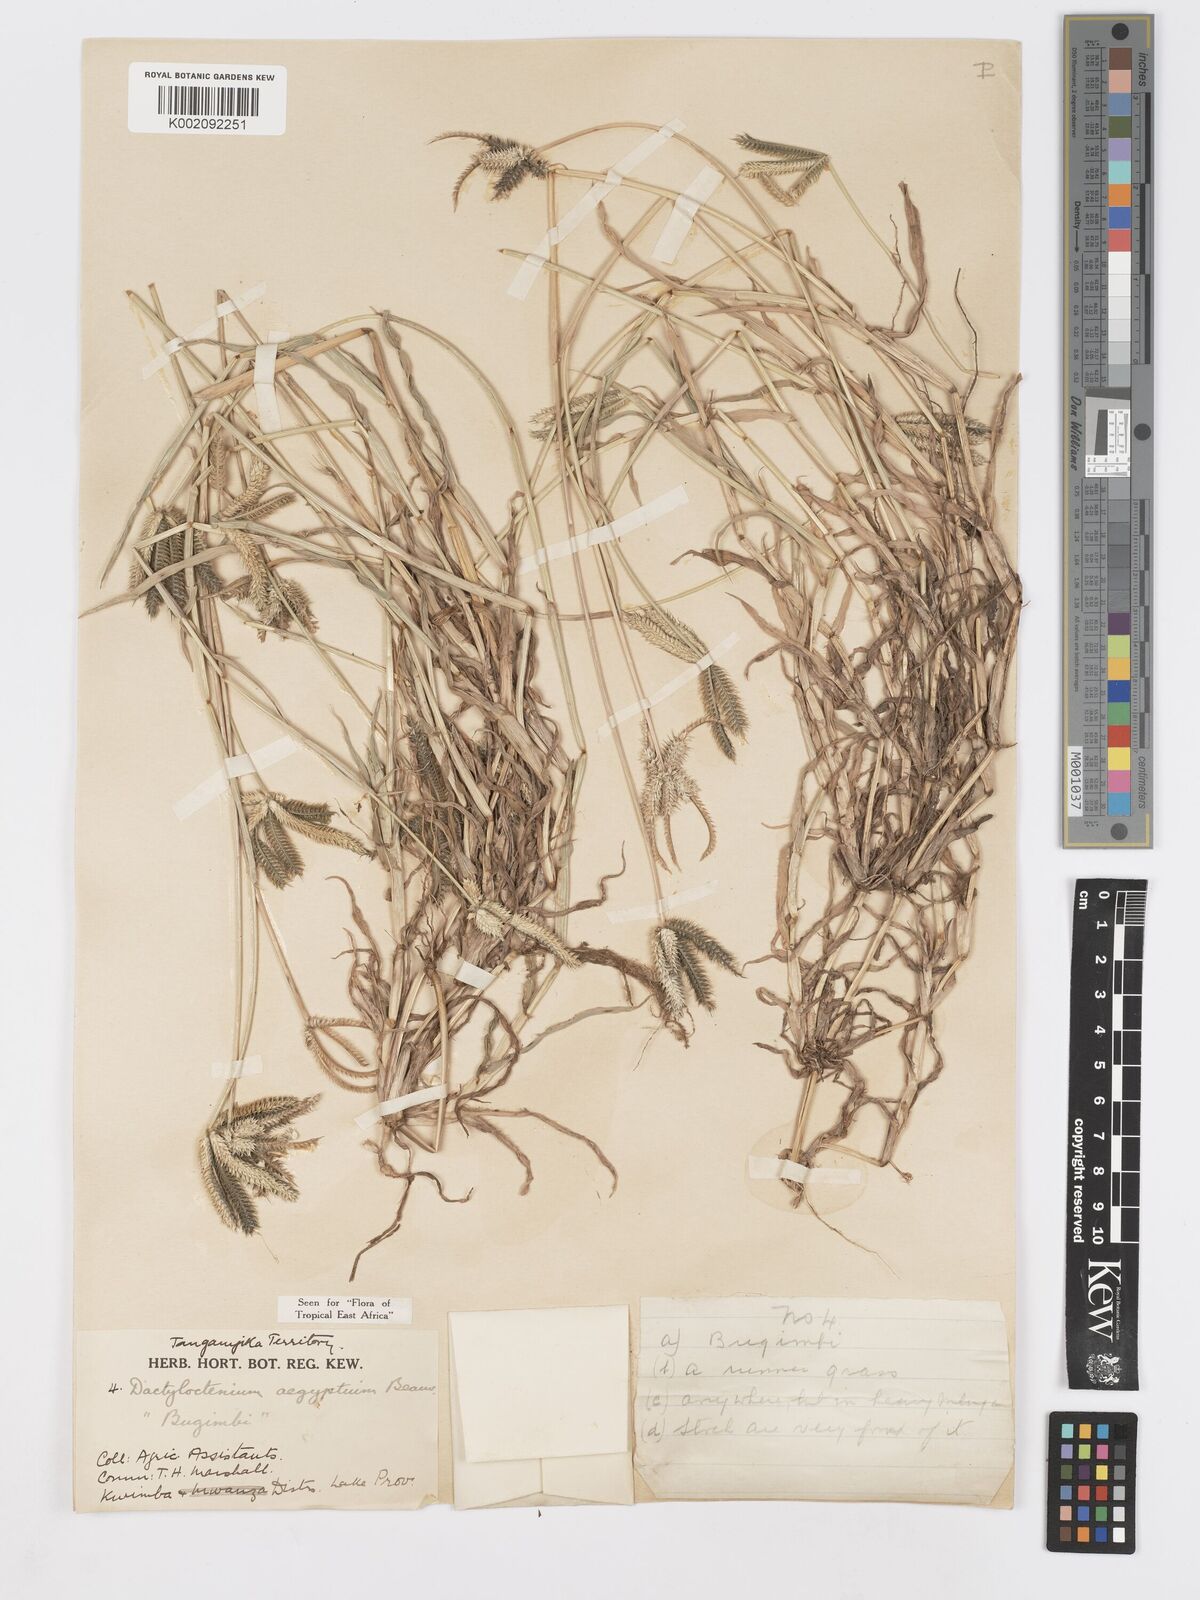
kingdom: Plantae
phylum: Tracheophyta
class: Liliopsida
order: Poales
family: Poaceae
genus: Dactyloctenium
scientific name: Dactyloctenium aegyptium
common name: Egyptian grass
